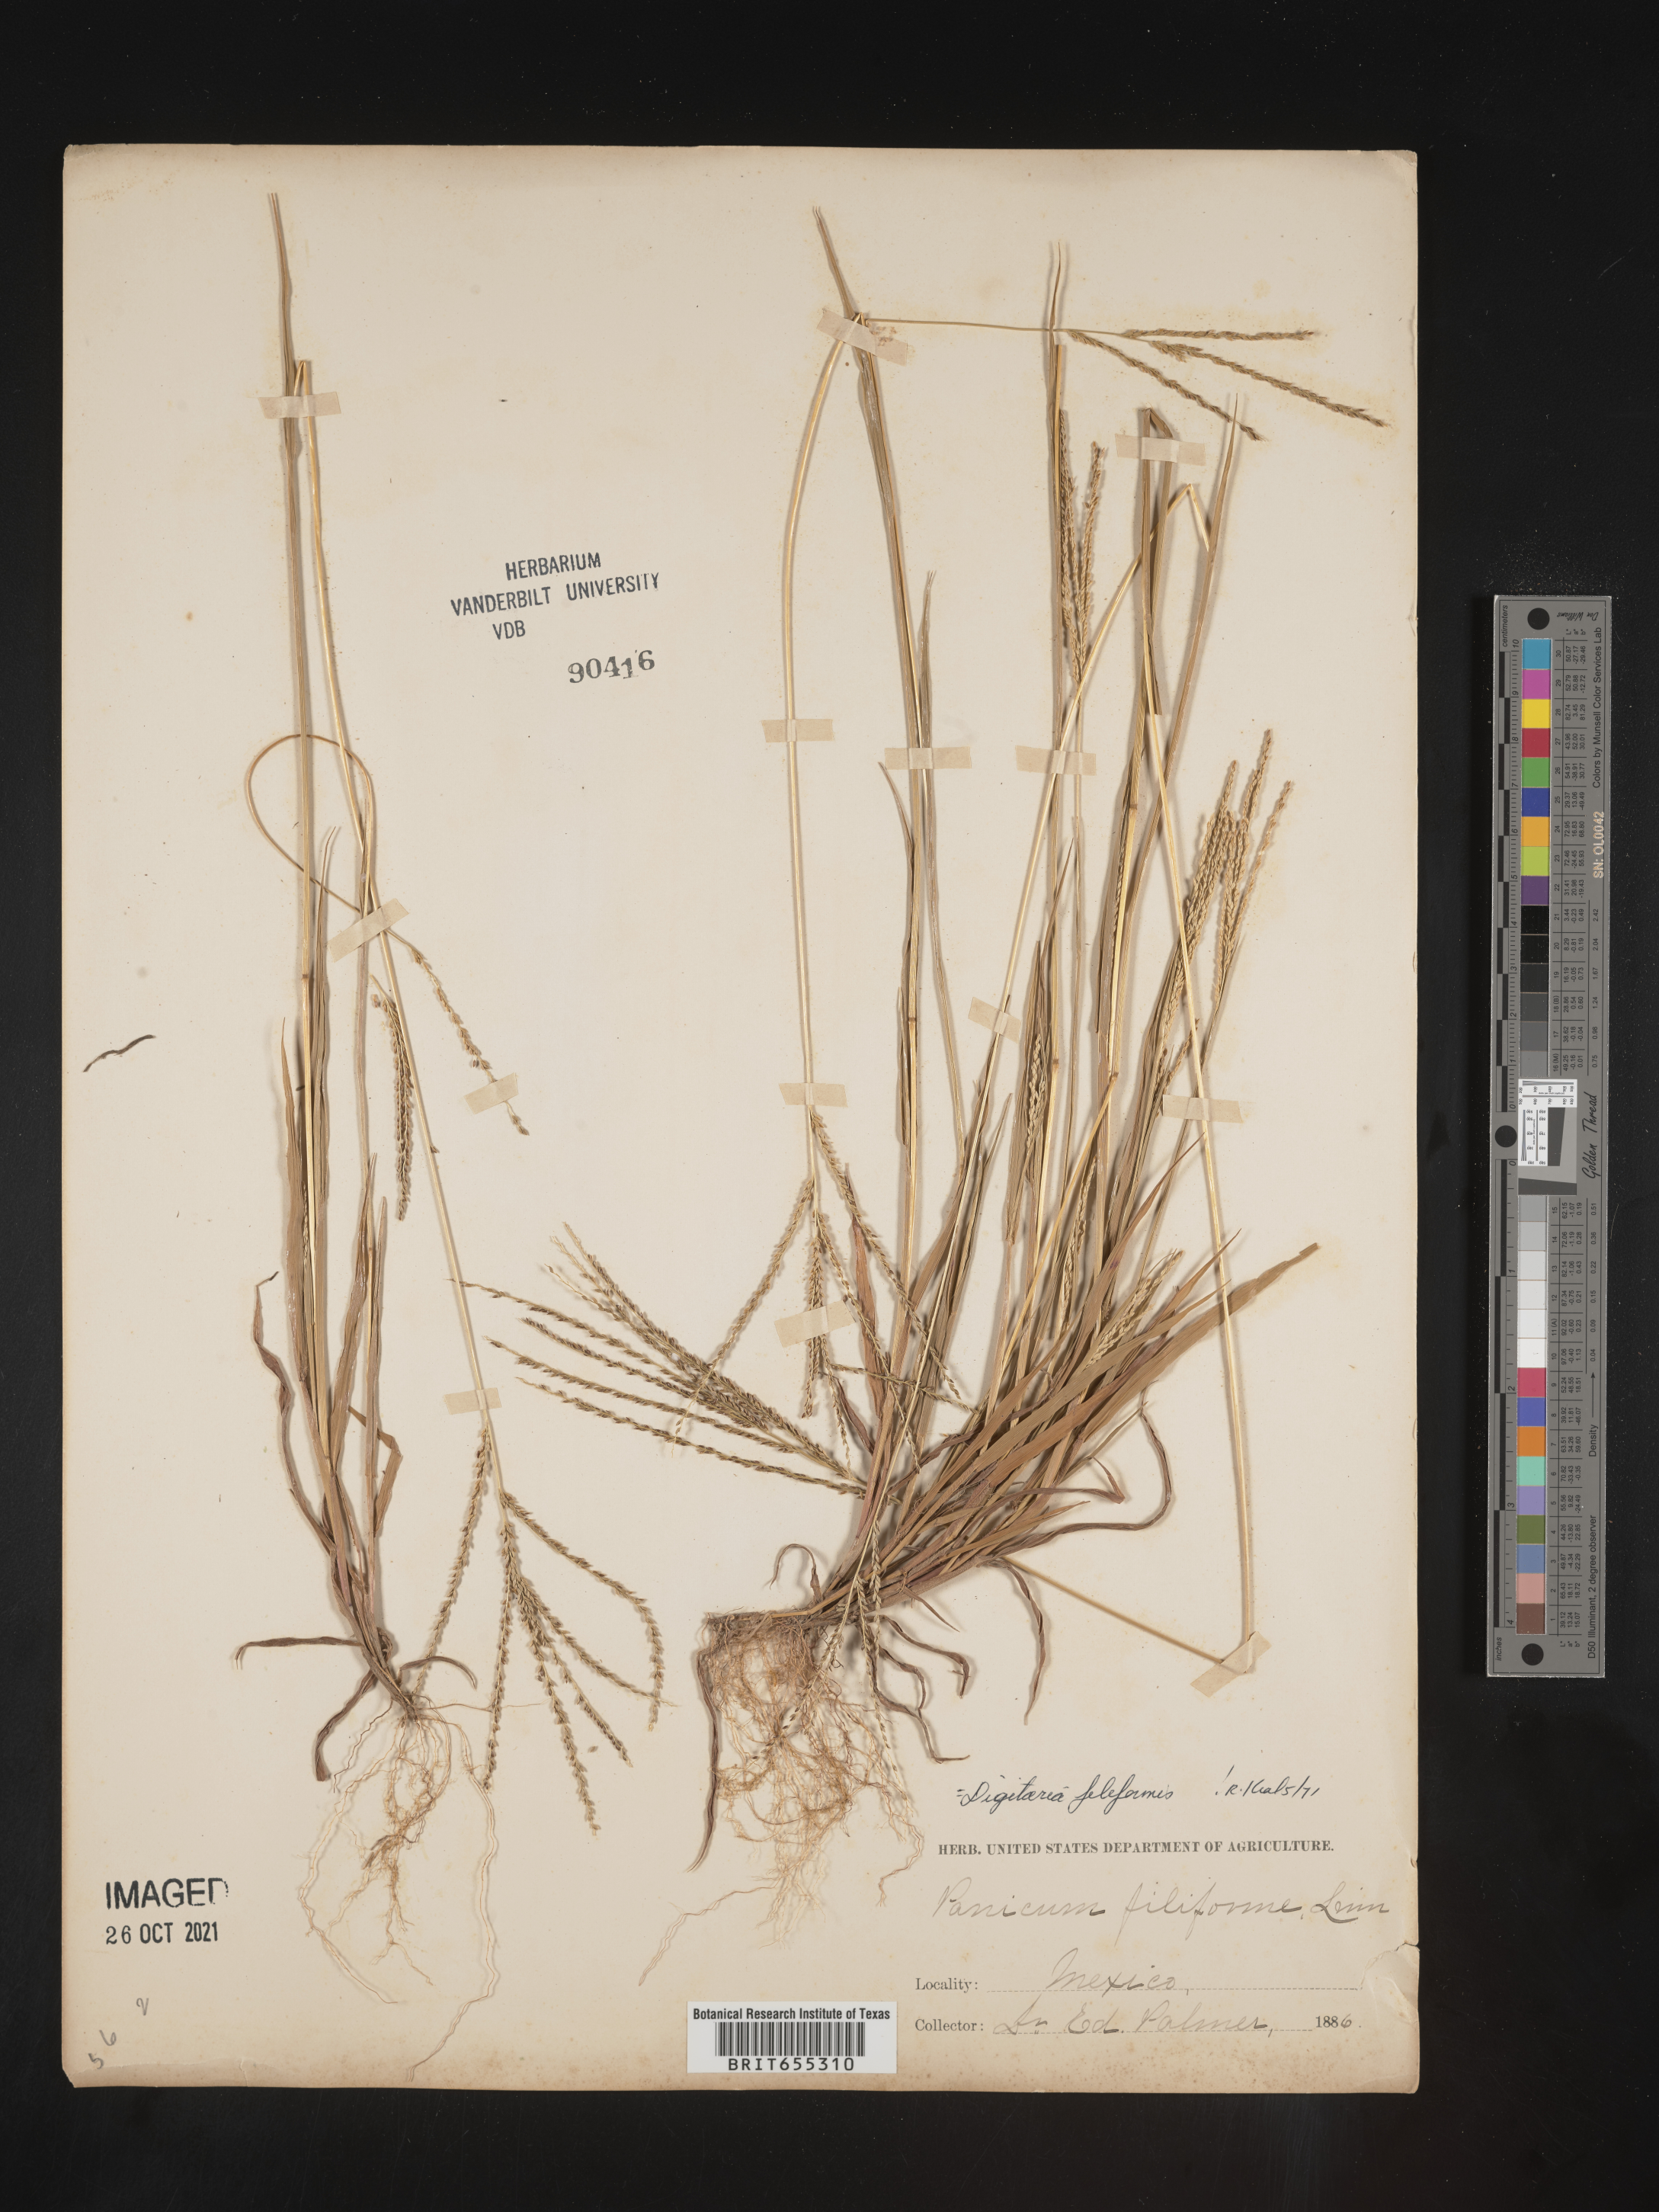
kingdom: Plantae
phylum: Tracheophyta
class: Liliopsida
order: Poales
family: Poaceae
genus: Digitaria
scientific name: Digitaria
